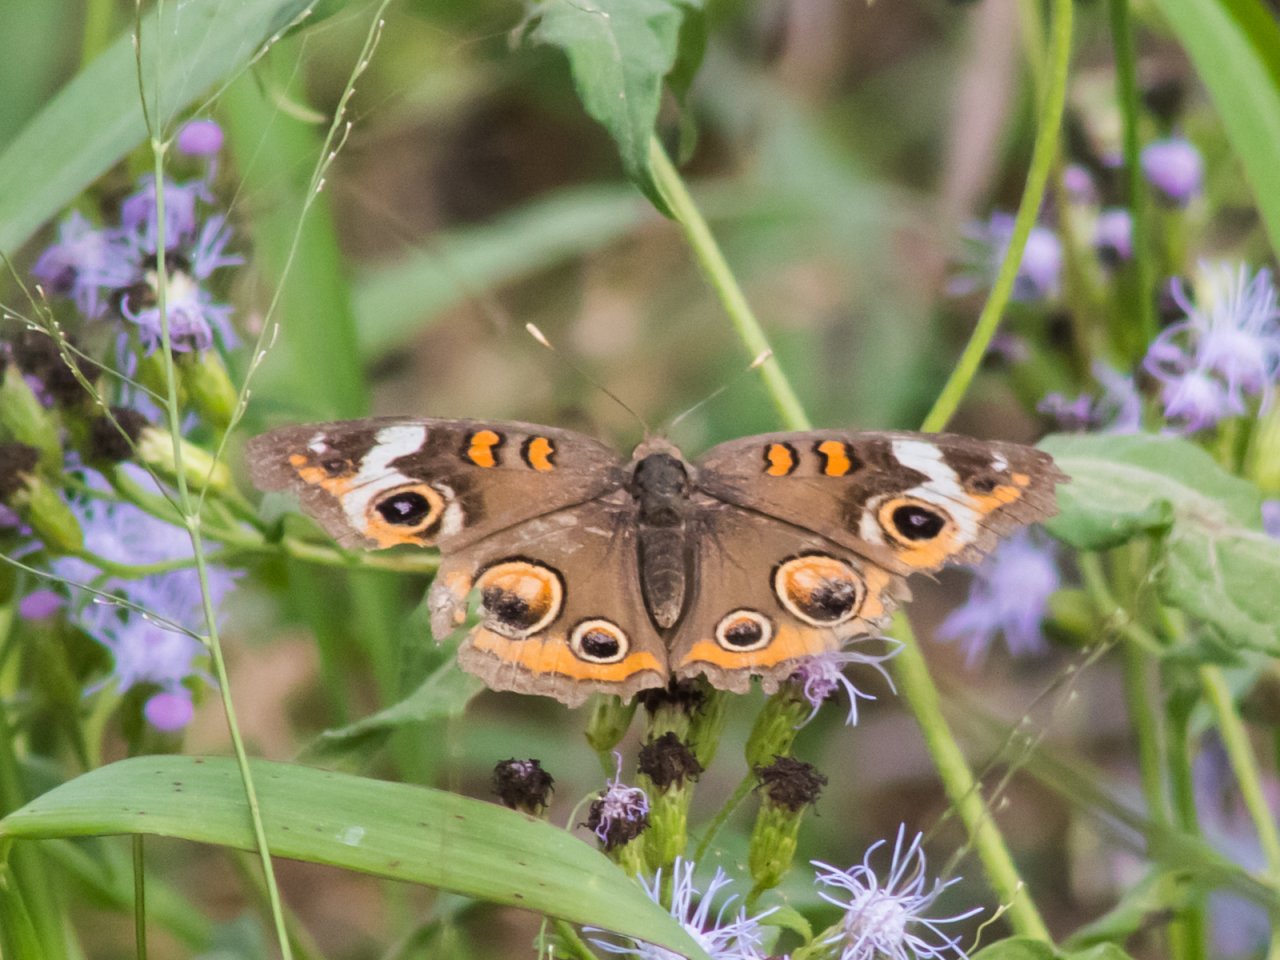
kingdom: Animalia
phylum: Arthropoda
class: Insecta
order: Lepidoptera
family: Nymphalidae
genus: Junonia
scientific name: Junonia coenia
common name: Common Buckeye
